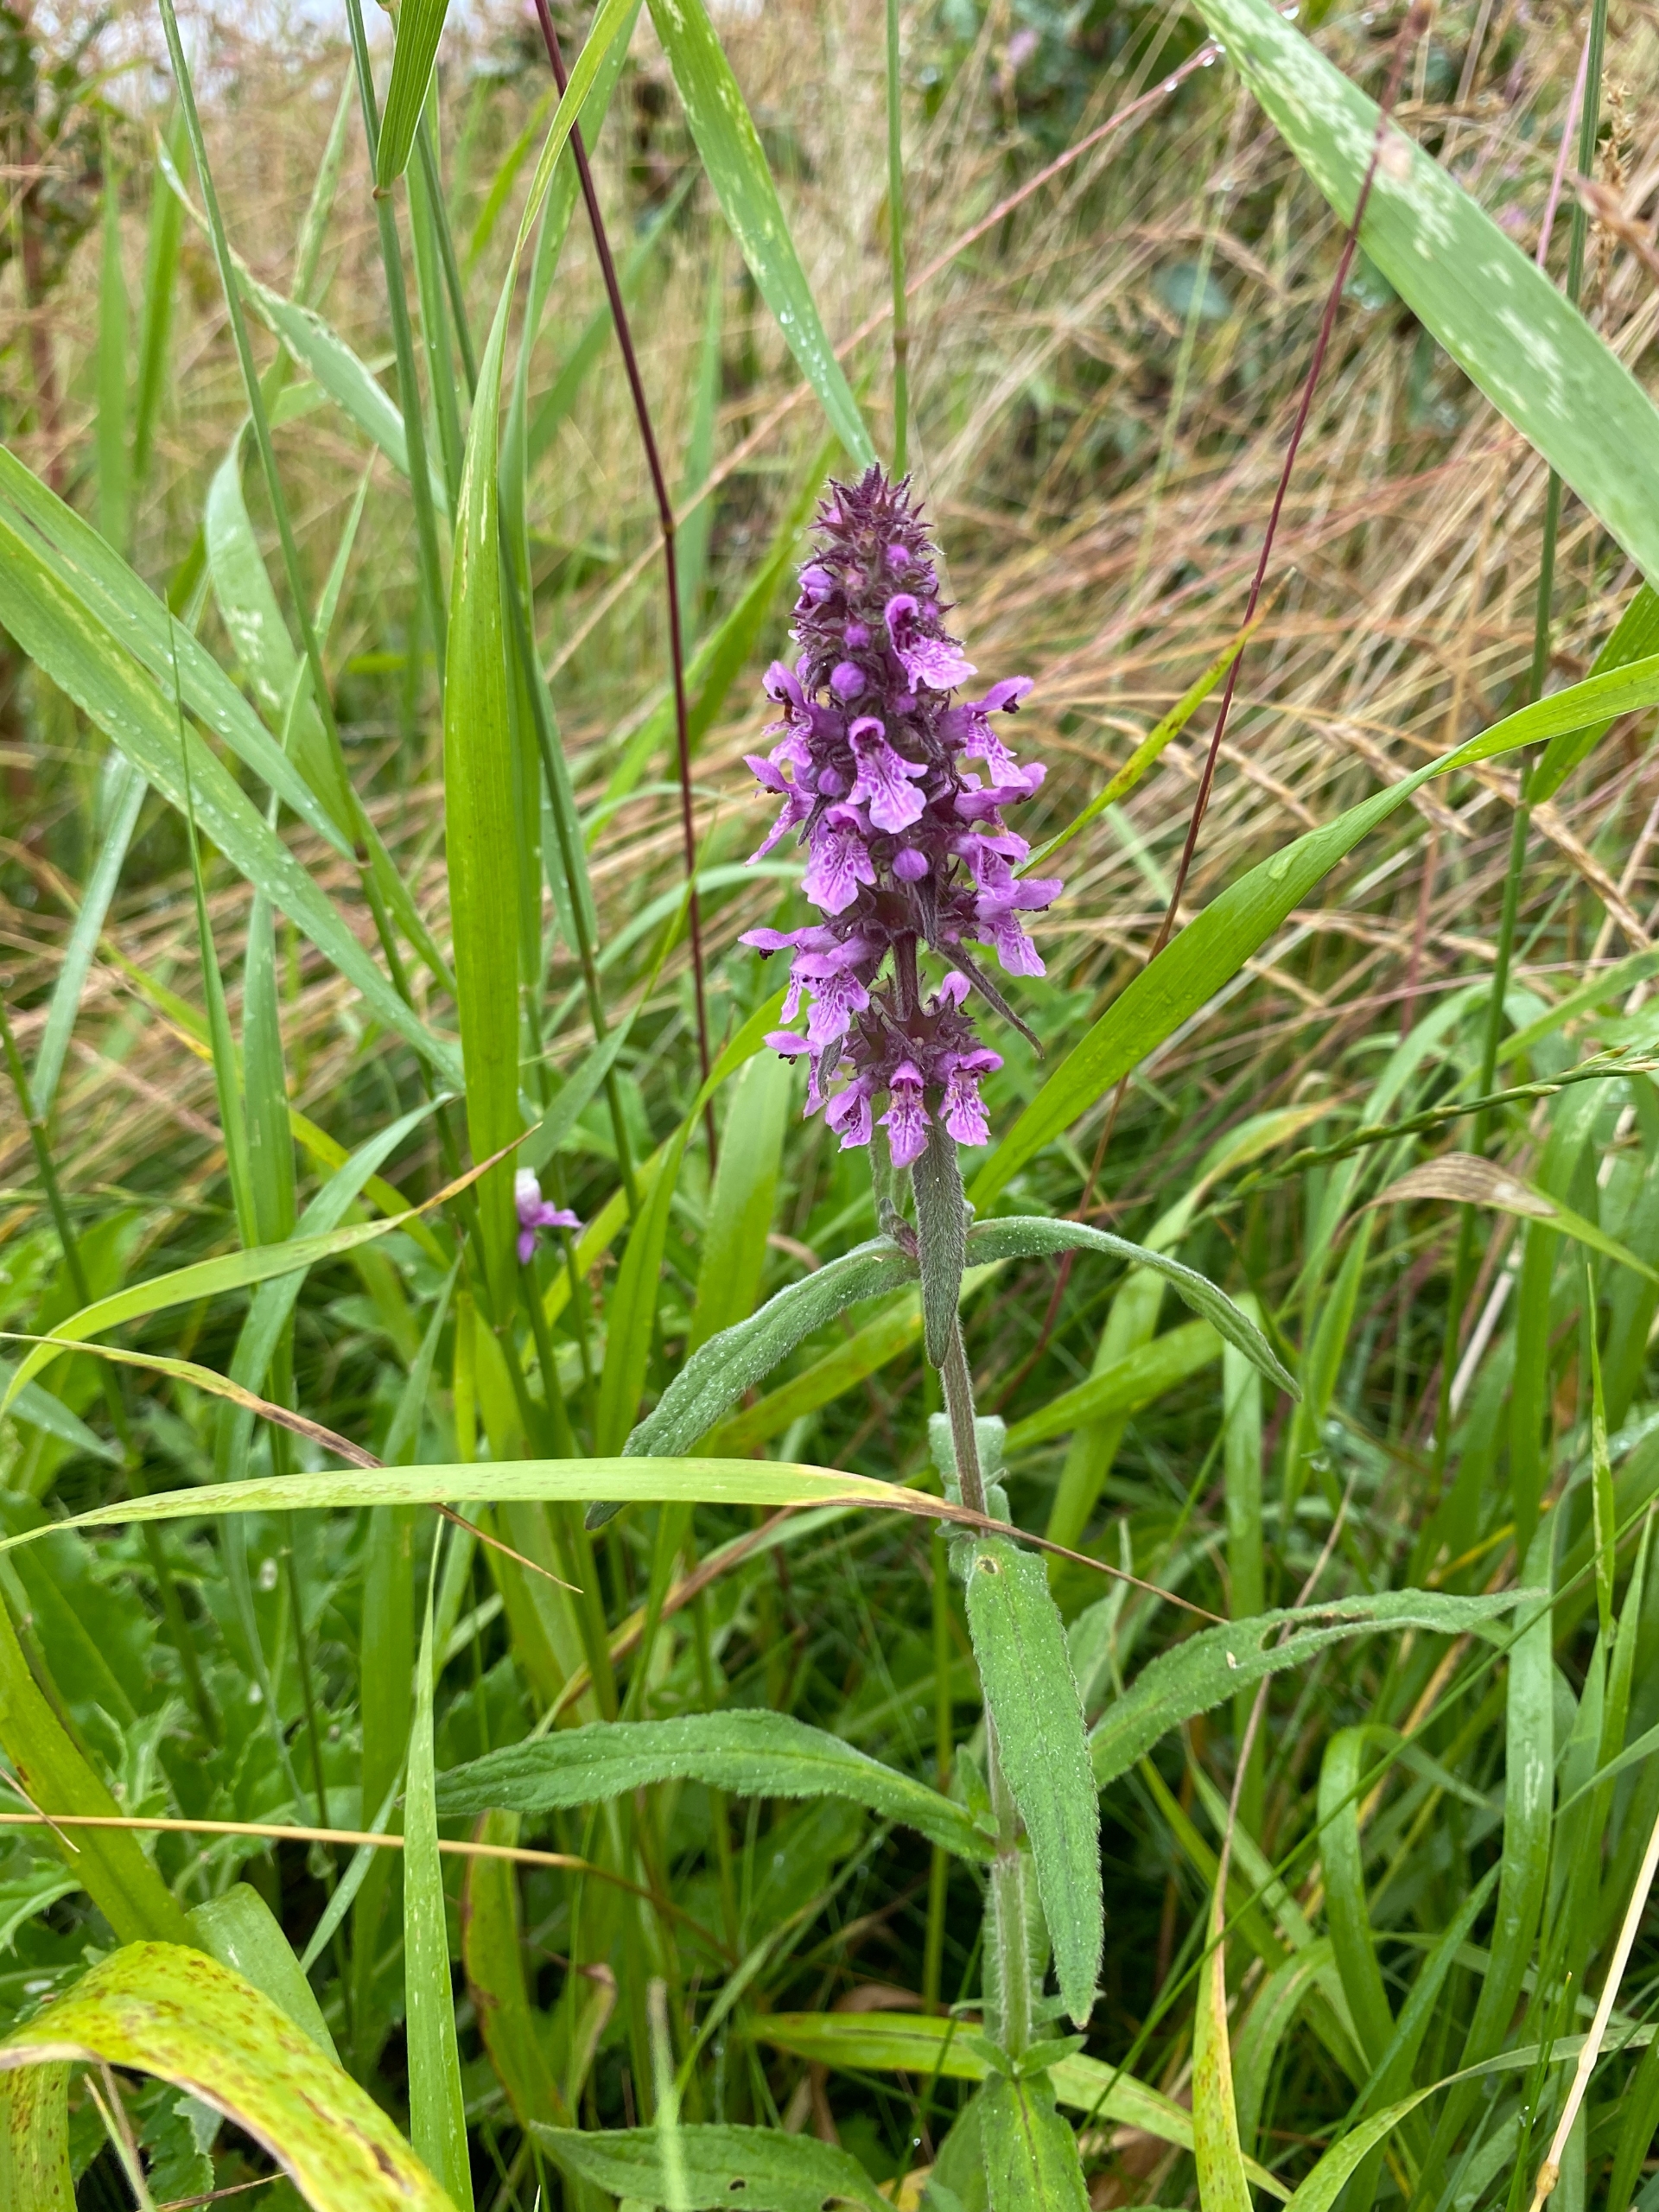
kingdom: Plantae
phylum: Tracheophyta
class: Magnoliopsida
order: Lamiales
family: Lamiaceae
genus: Stachys
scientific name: Stachys palustris
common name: Kær-galtetand
